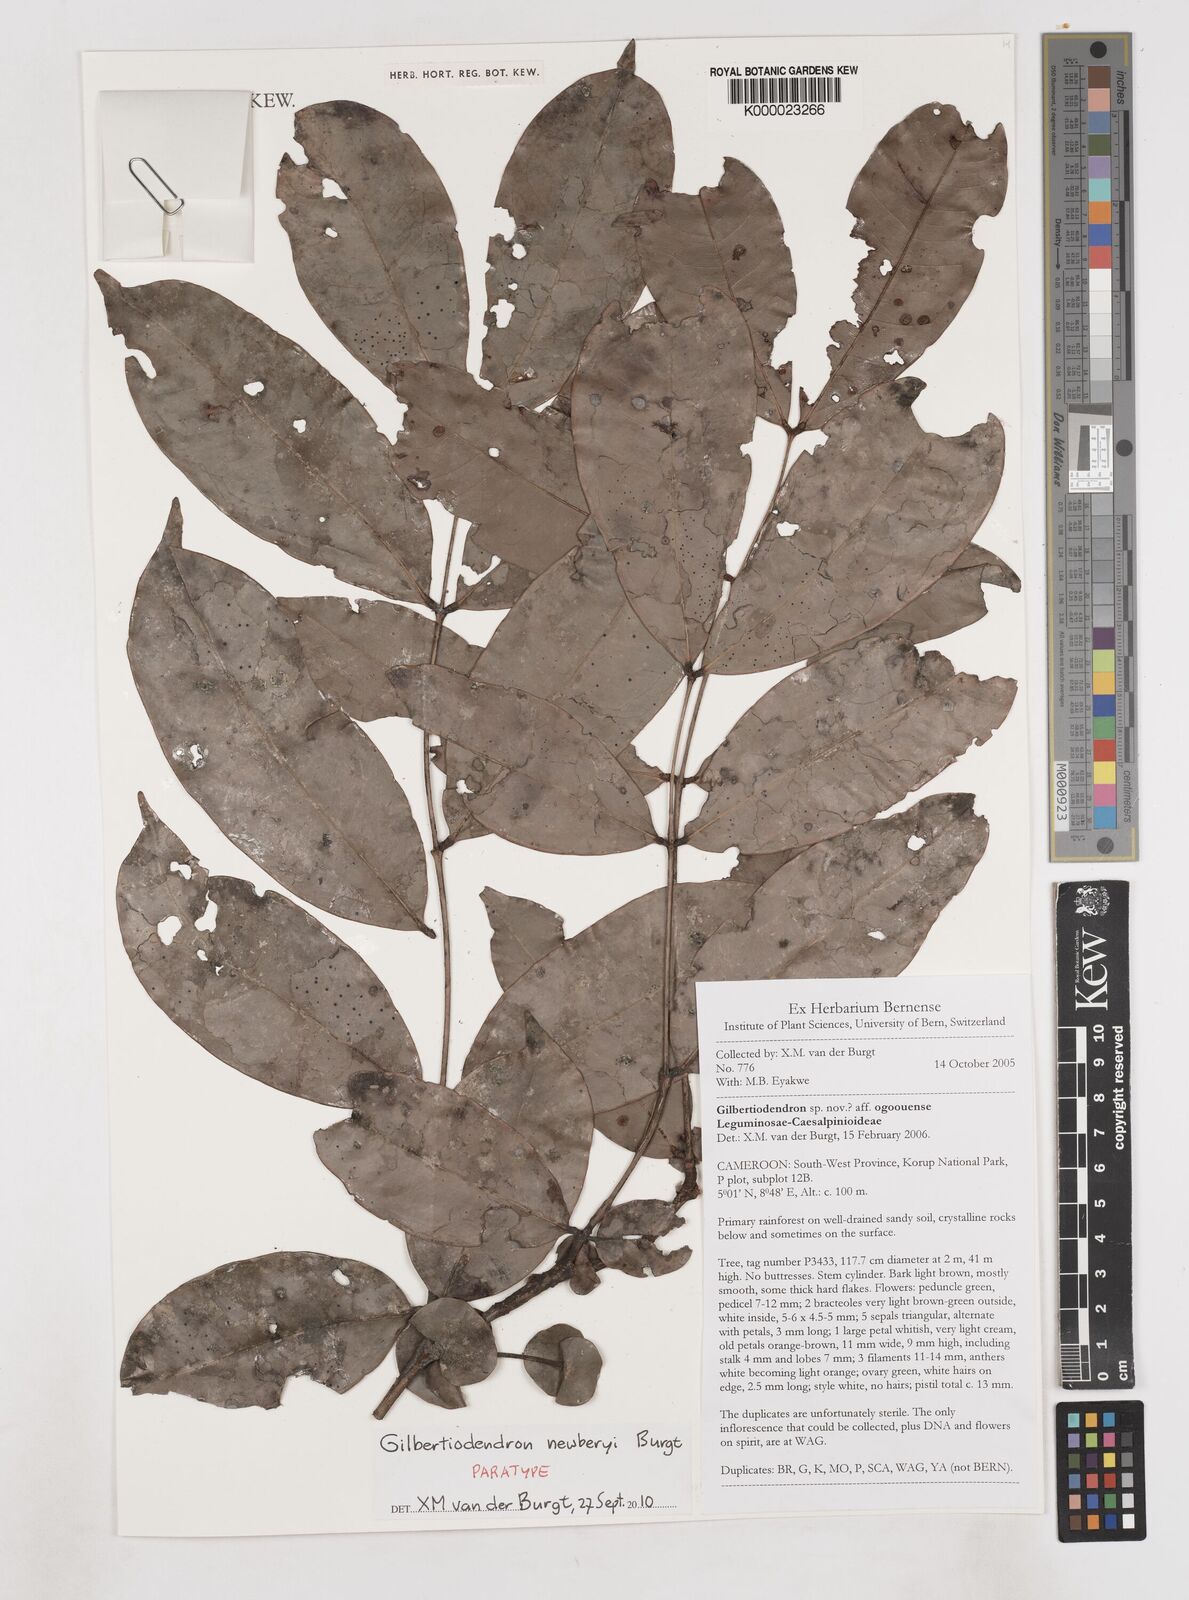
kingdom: Plantae
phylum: Tracheophyta
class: Magnoliopsida
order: Fabales
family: Fabaceae
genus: Gilbertiodendron
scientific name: Gilbertiodendron newberyi
